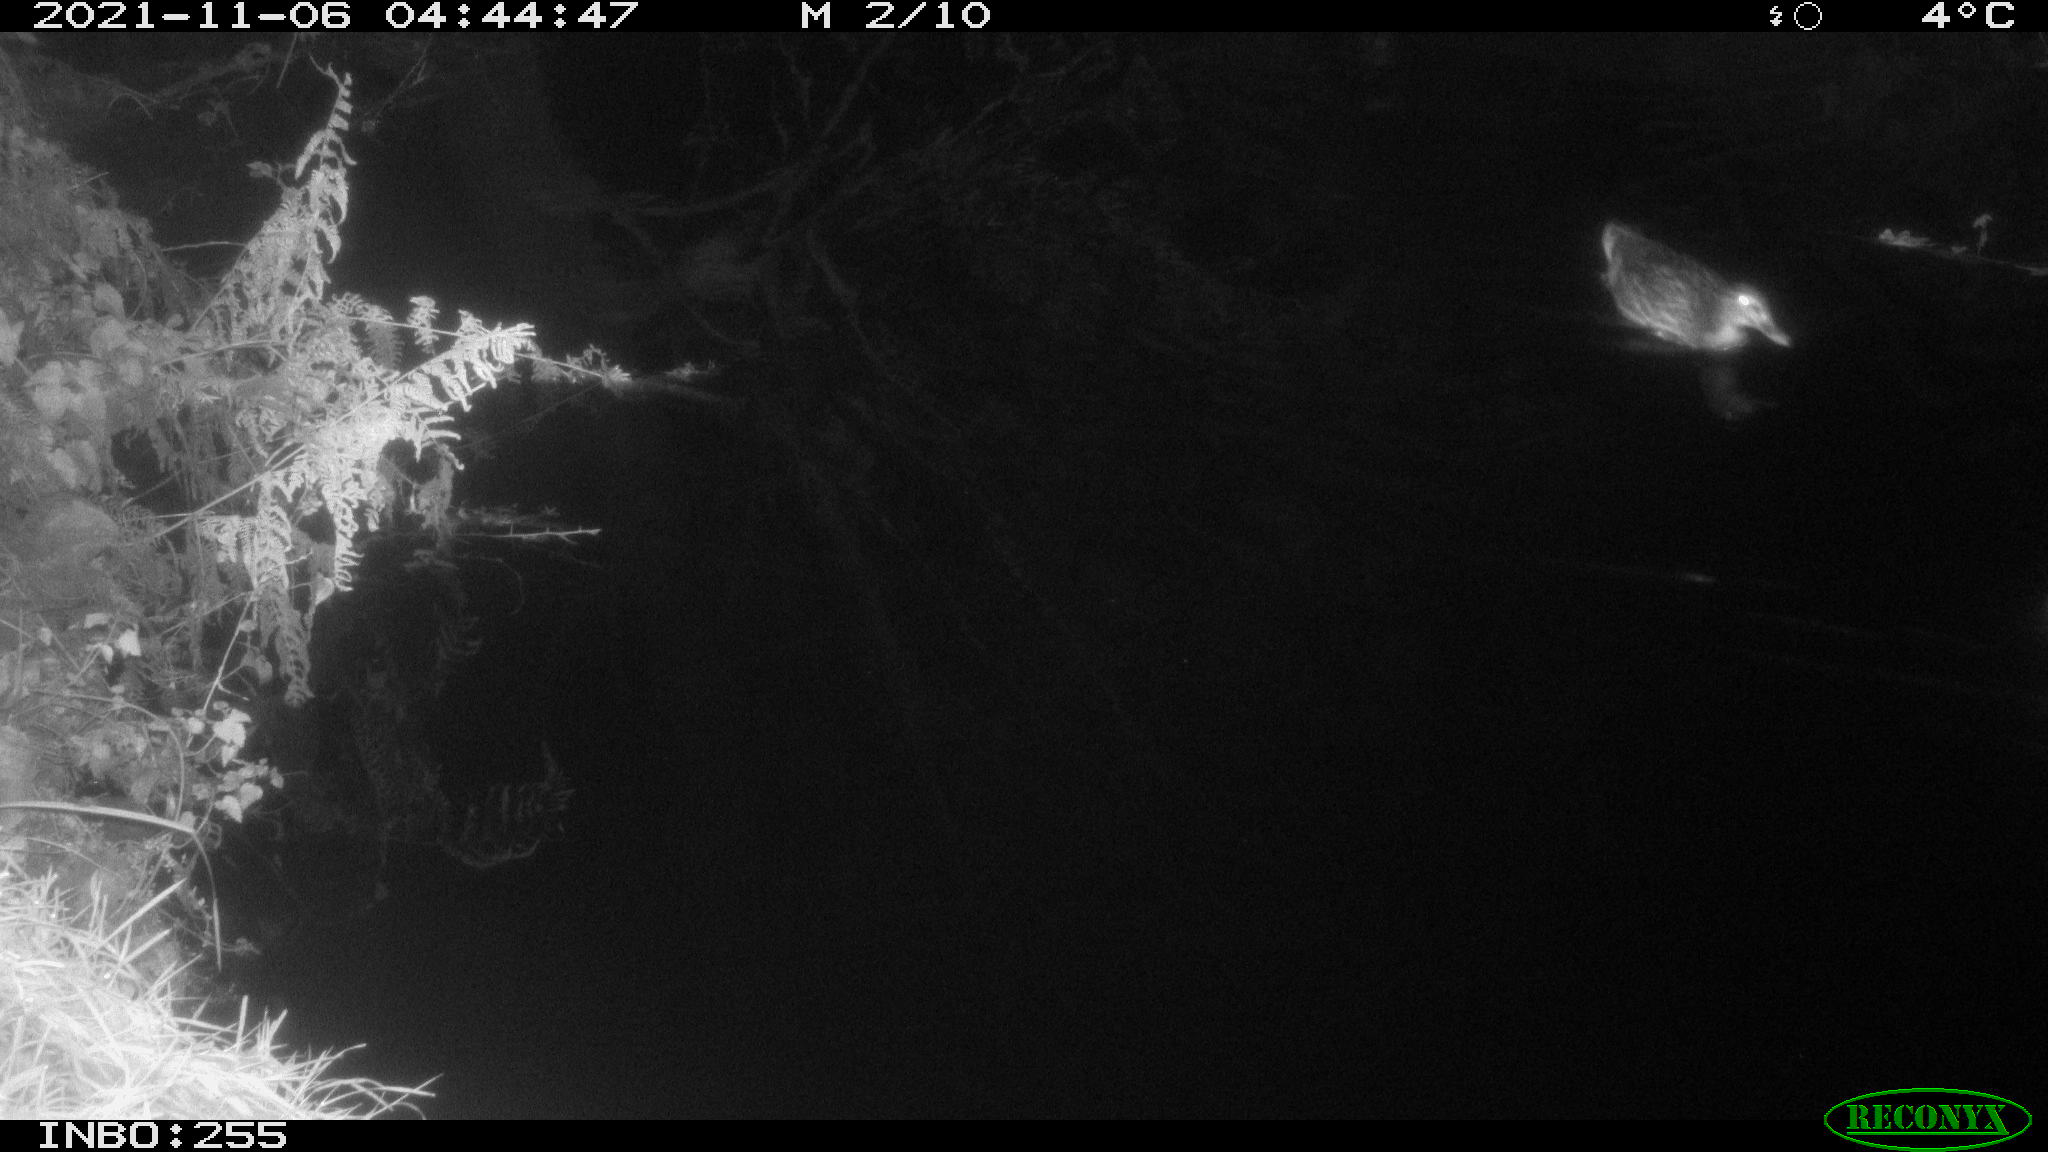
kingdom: Animalia
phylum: Chordata
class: Aves
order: Anseriformes
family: Anatidae
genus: Anas
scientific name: Anas platyrhynchos
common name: Mallard
